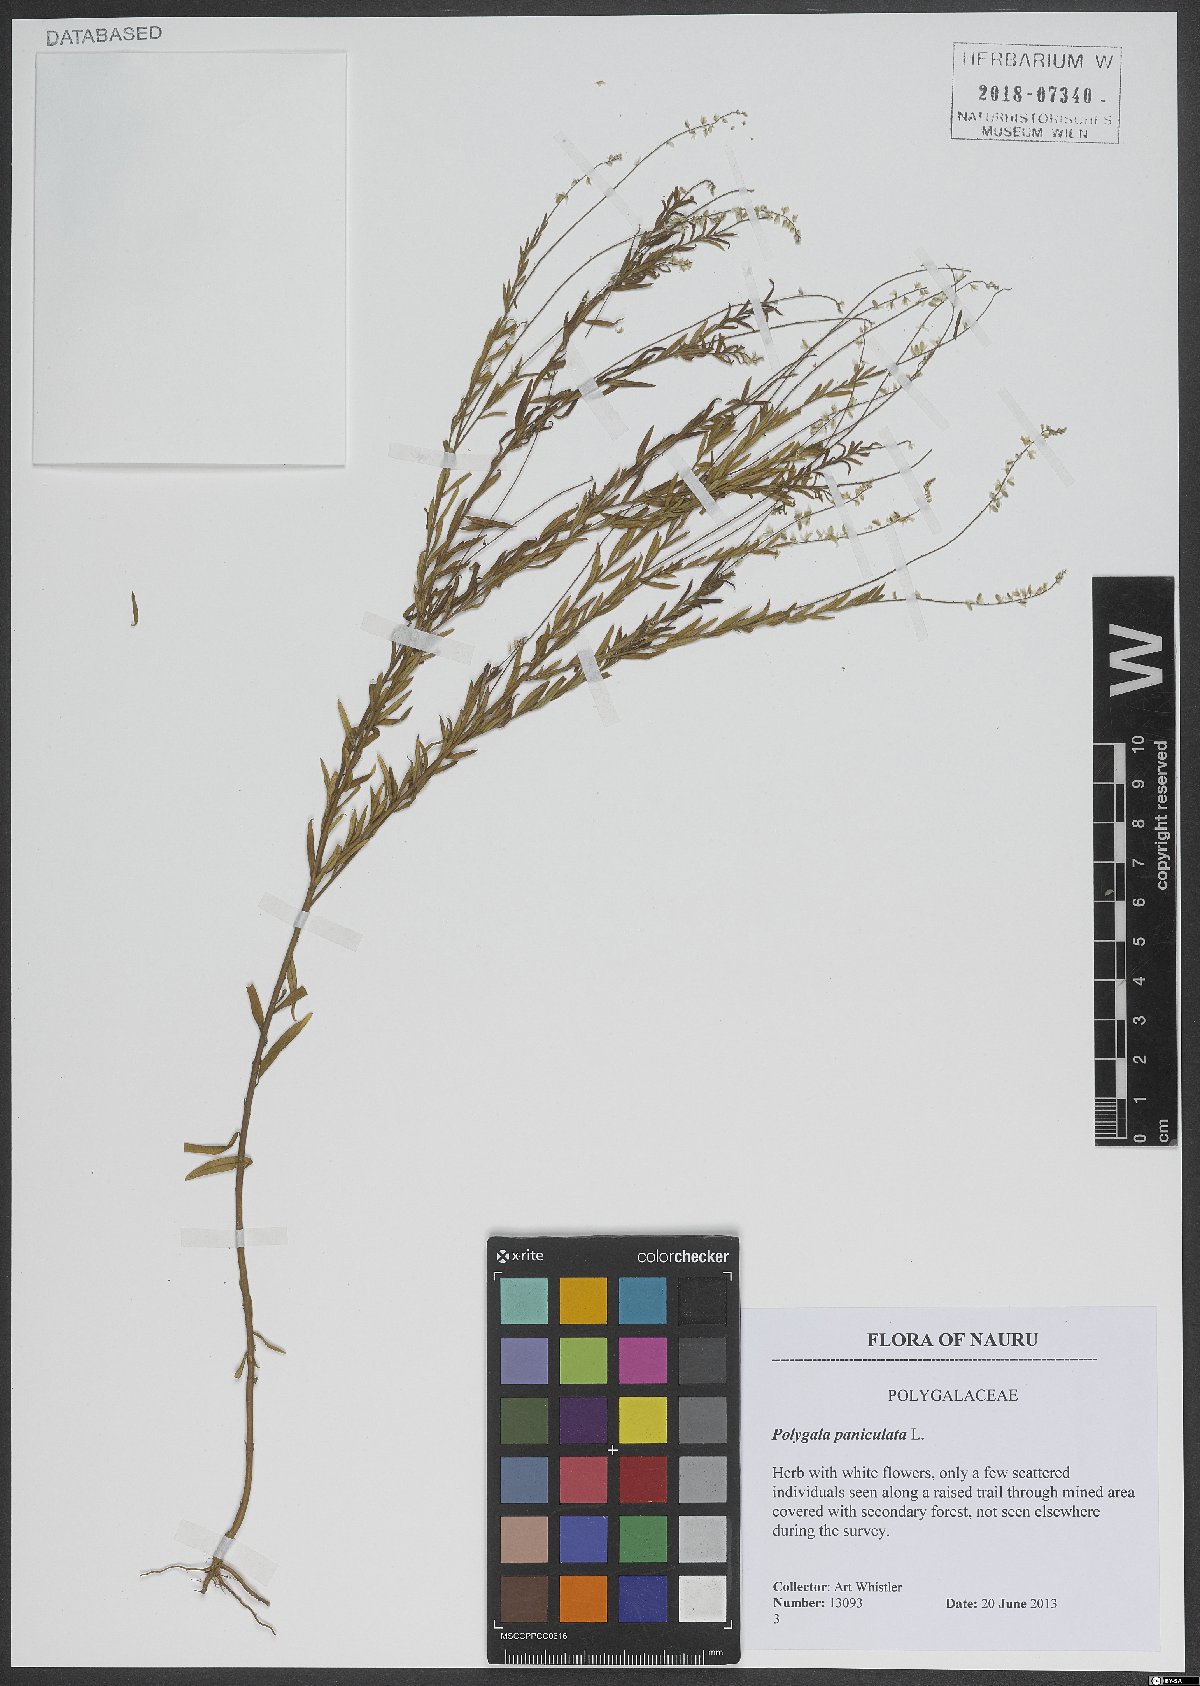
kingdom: Plantae
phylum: Tracheophyta
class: Magnoliopsida
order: Fabales
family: Polygalaceae
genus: Polygala
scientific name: Polygala paniculata
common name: Orosne
